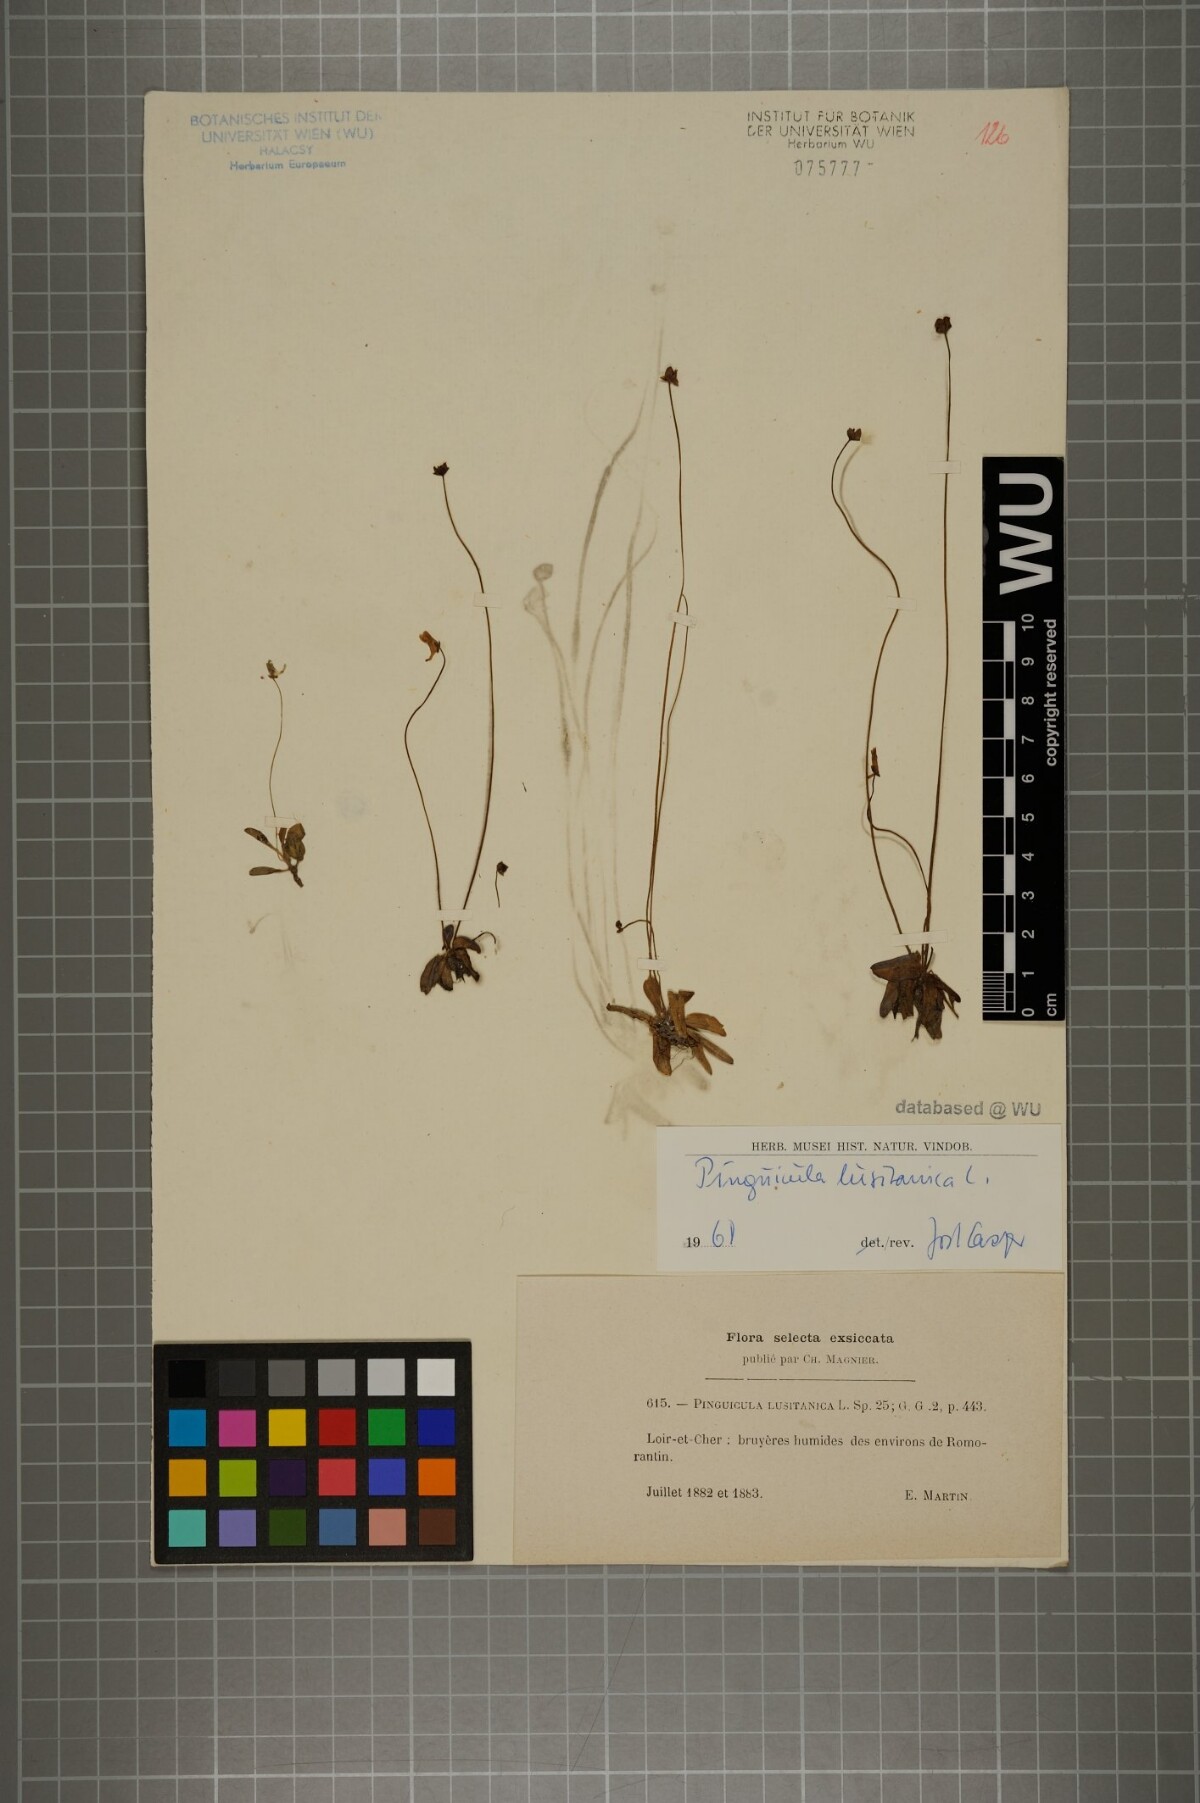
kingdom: Plantae
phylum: Tracheophyta
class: Magnoliopsida
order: Lamiales
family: Lentibulariaceae
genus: Pinguicula
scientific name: Pinguicula lusitanica
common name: Pale butterwort
